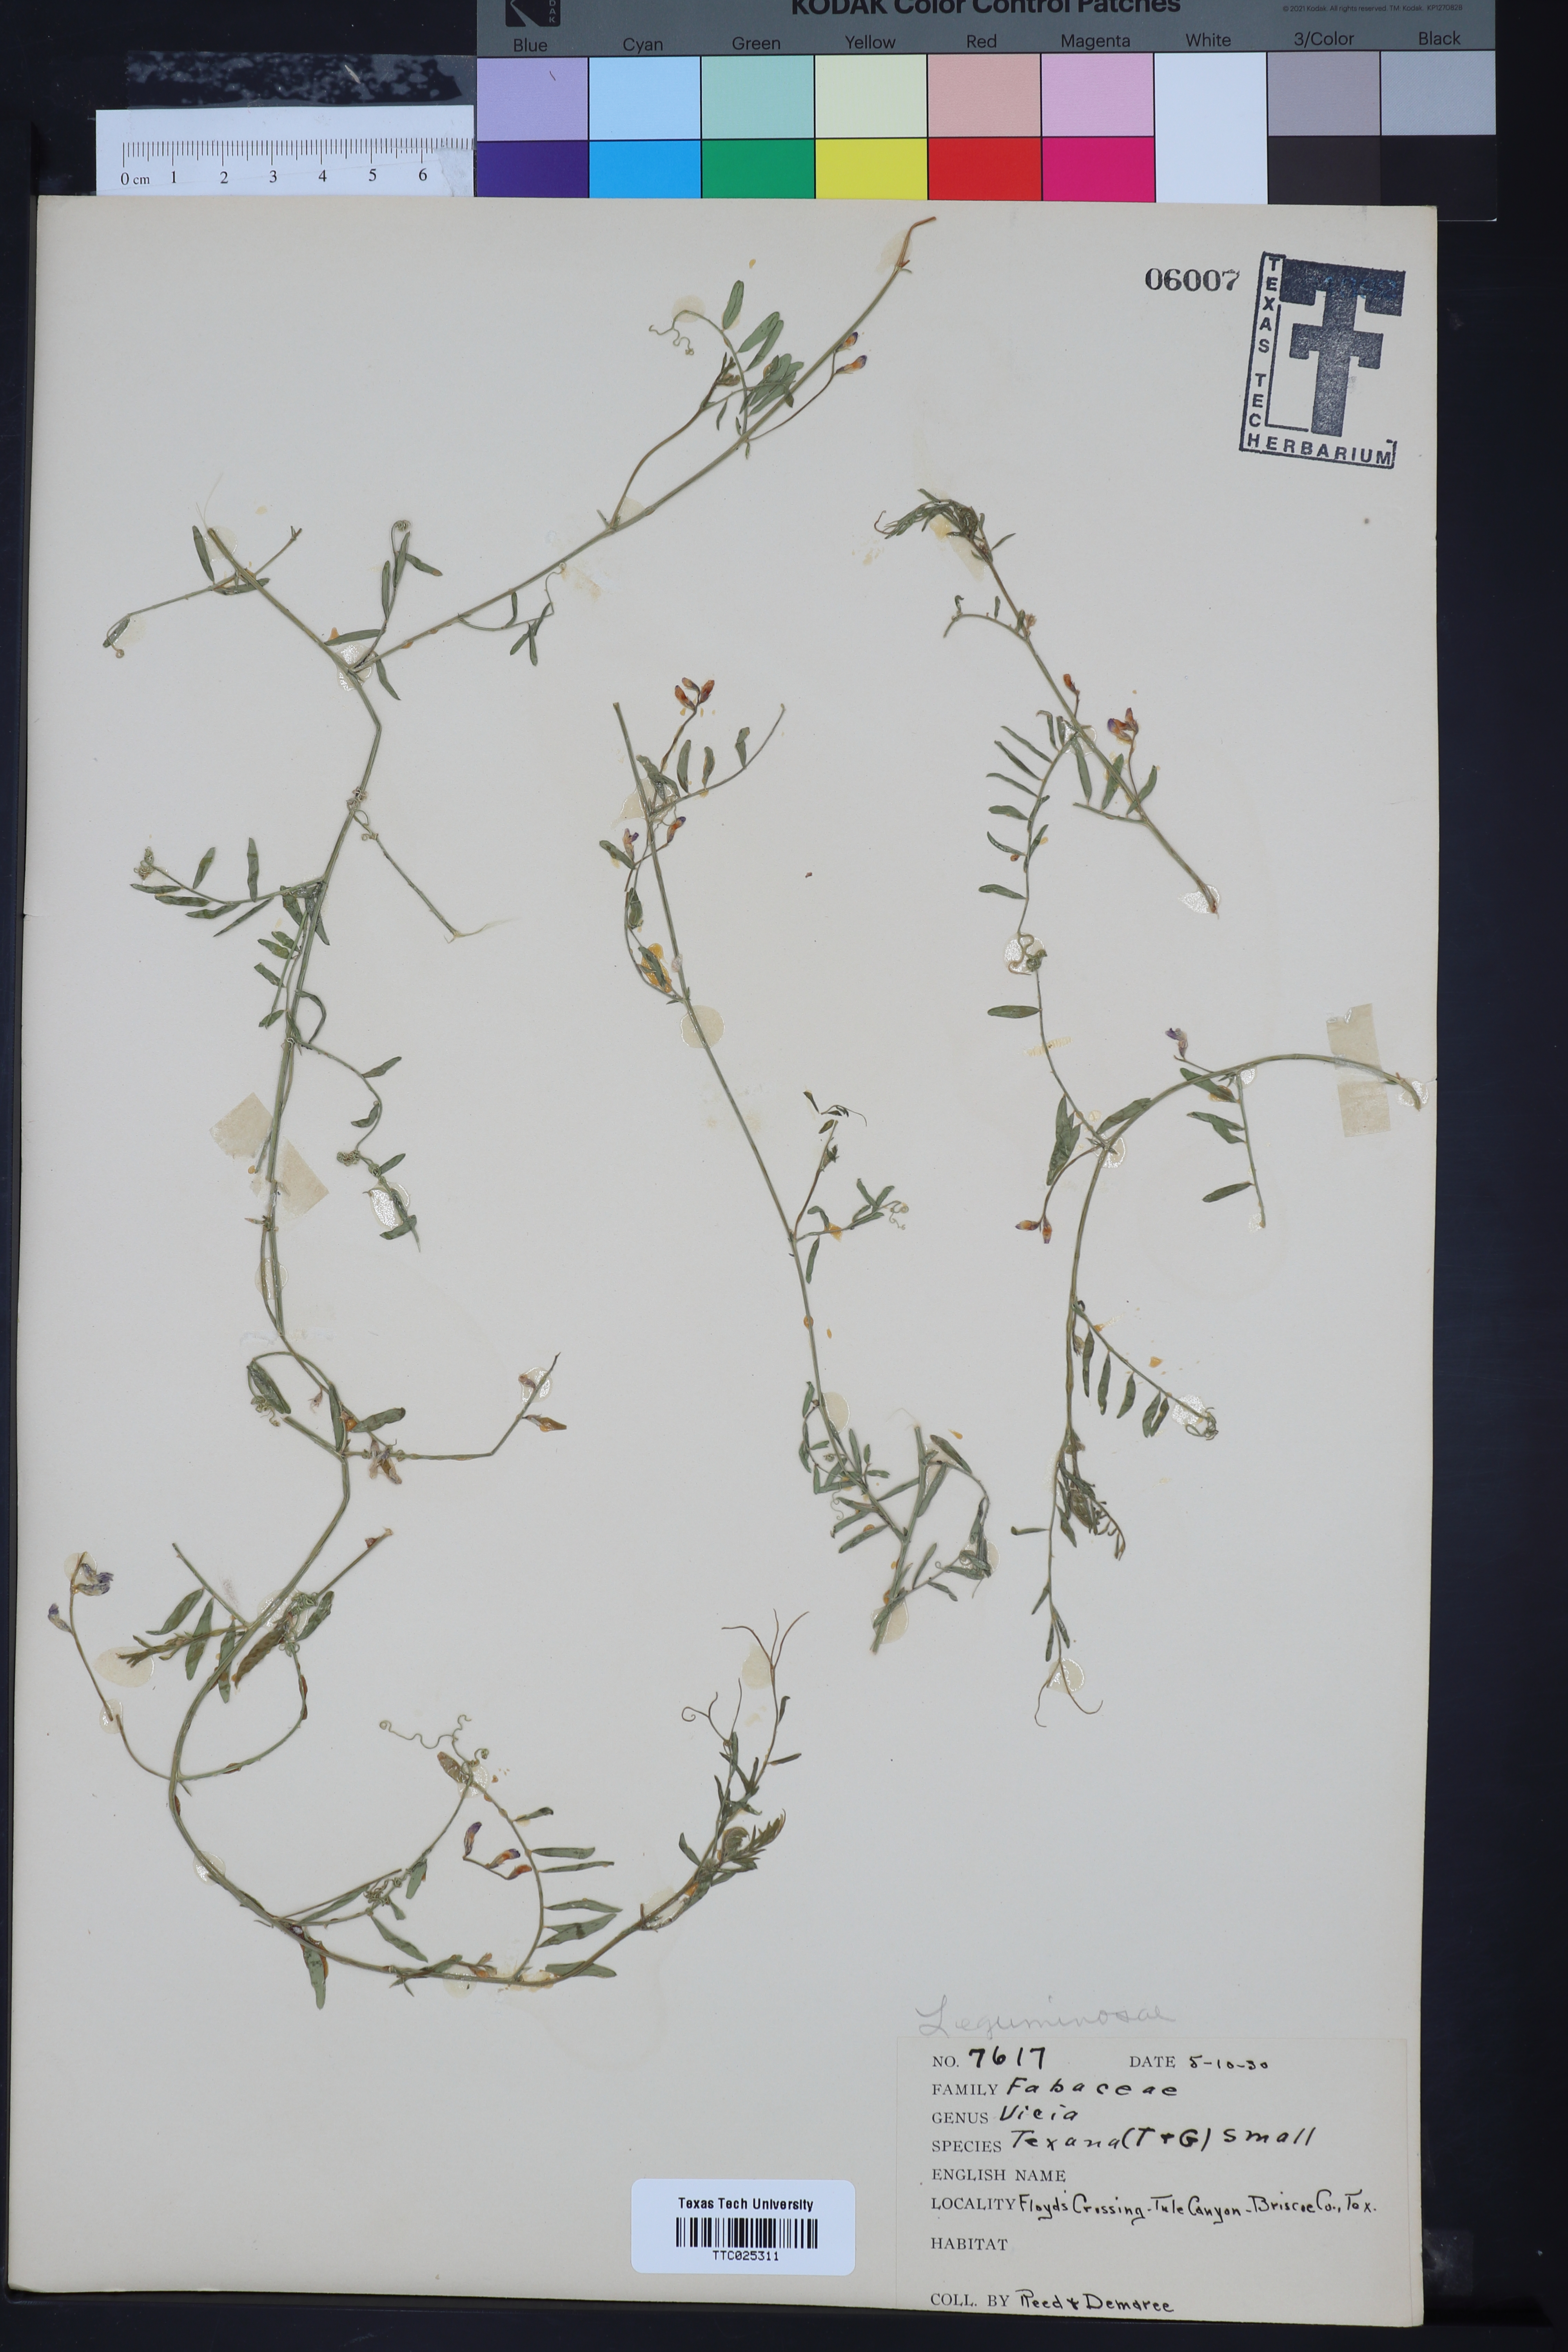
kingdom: Plantae
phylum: Tracheophyta
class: Magnoliopsida
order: Fabales
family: Fabaceae
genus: Vicia
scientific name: Vicia ludoviciana
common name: Louisiana vetch
